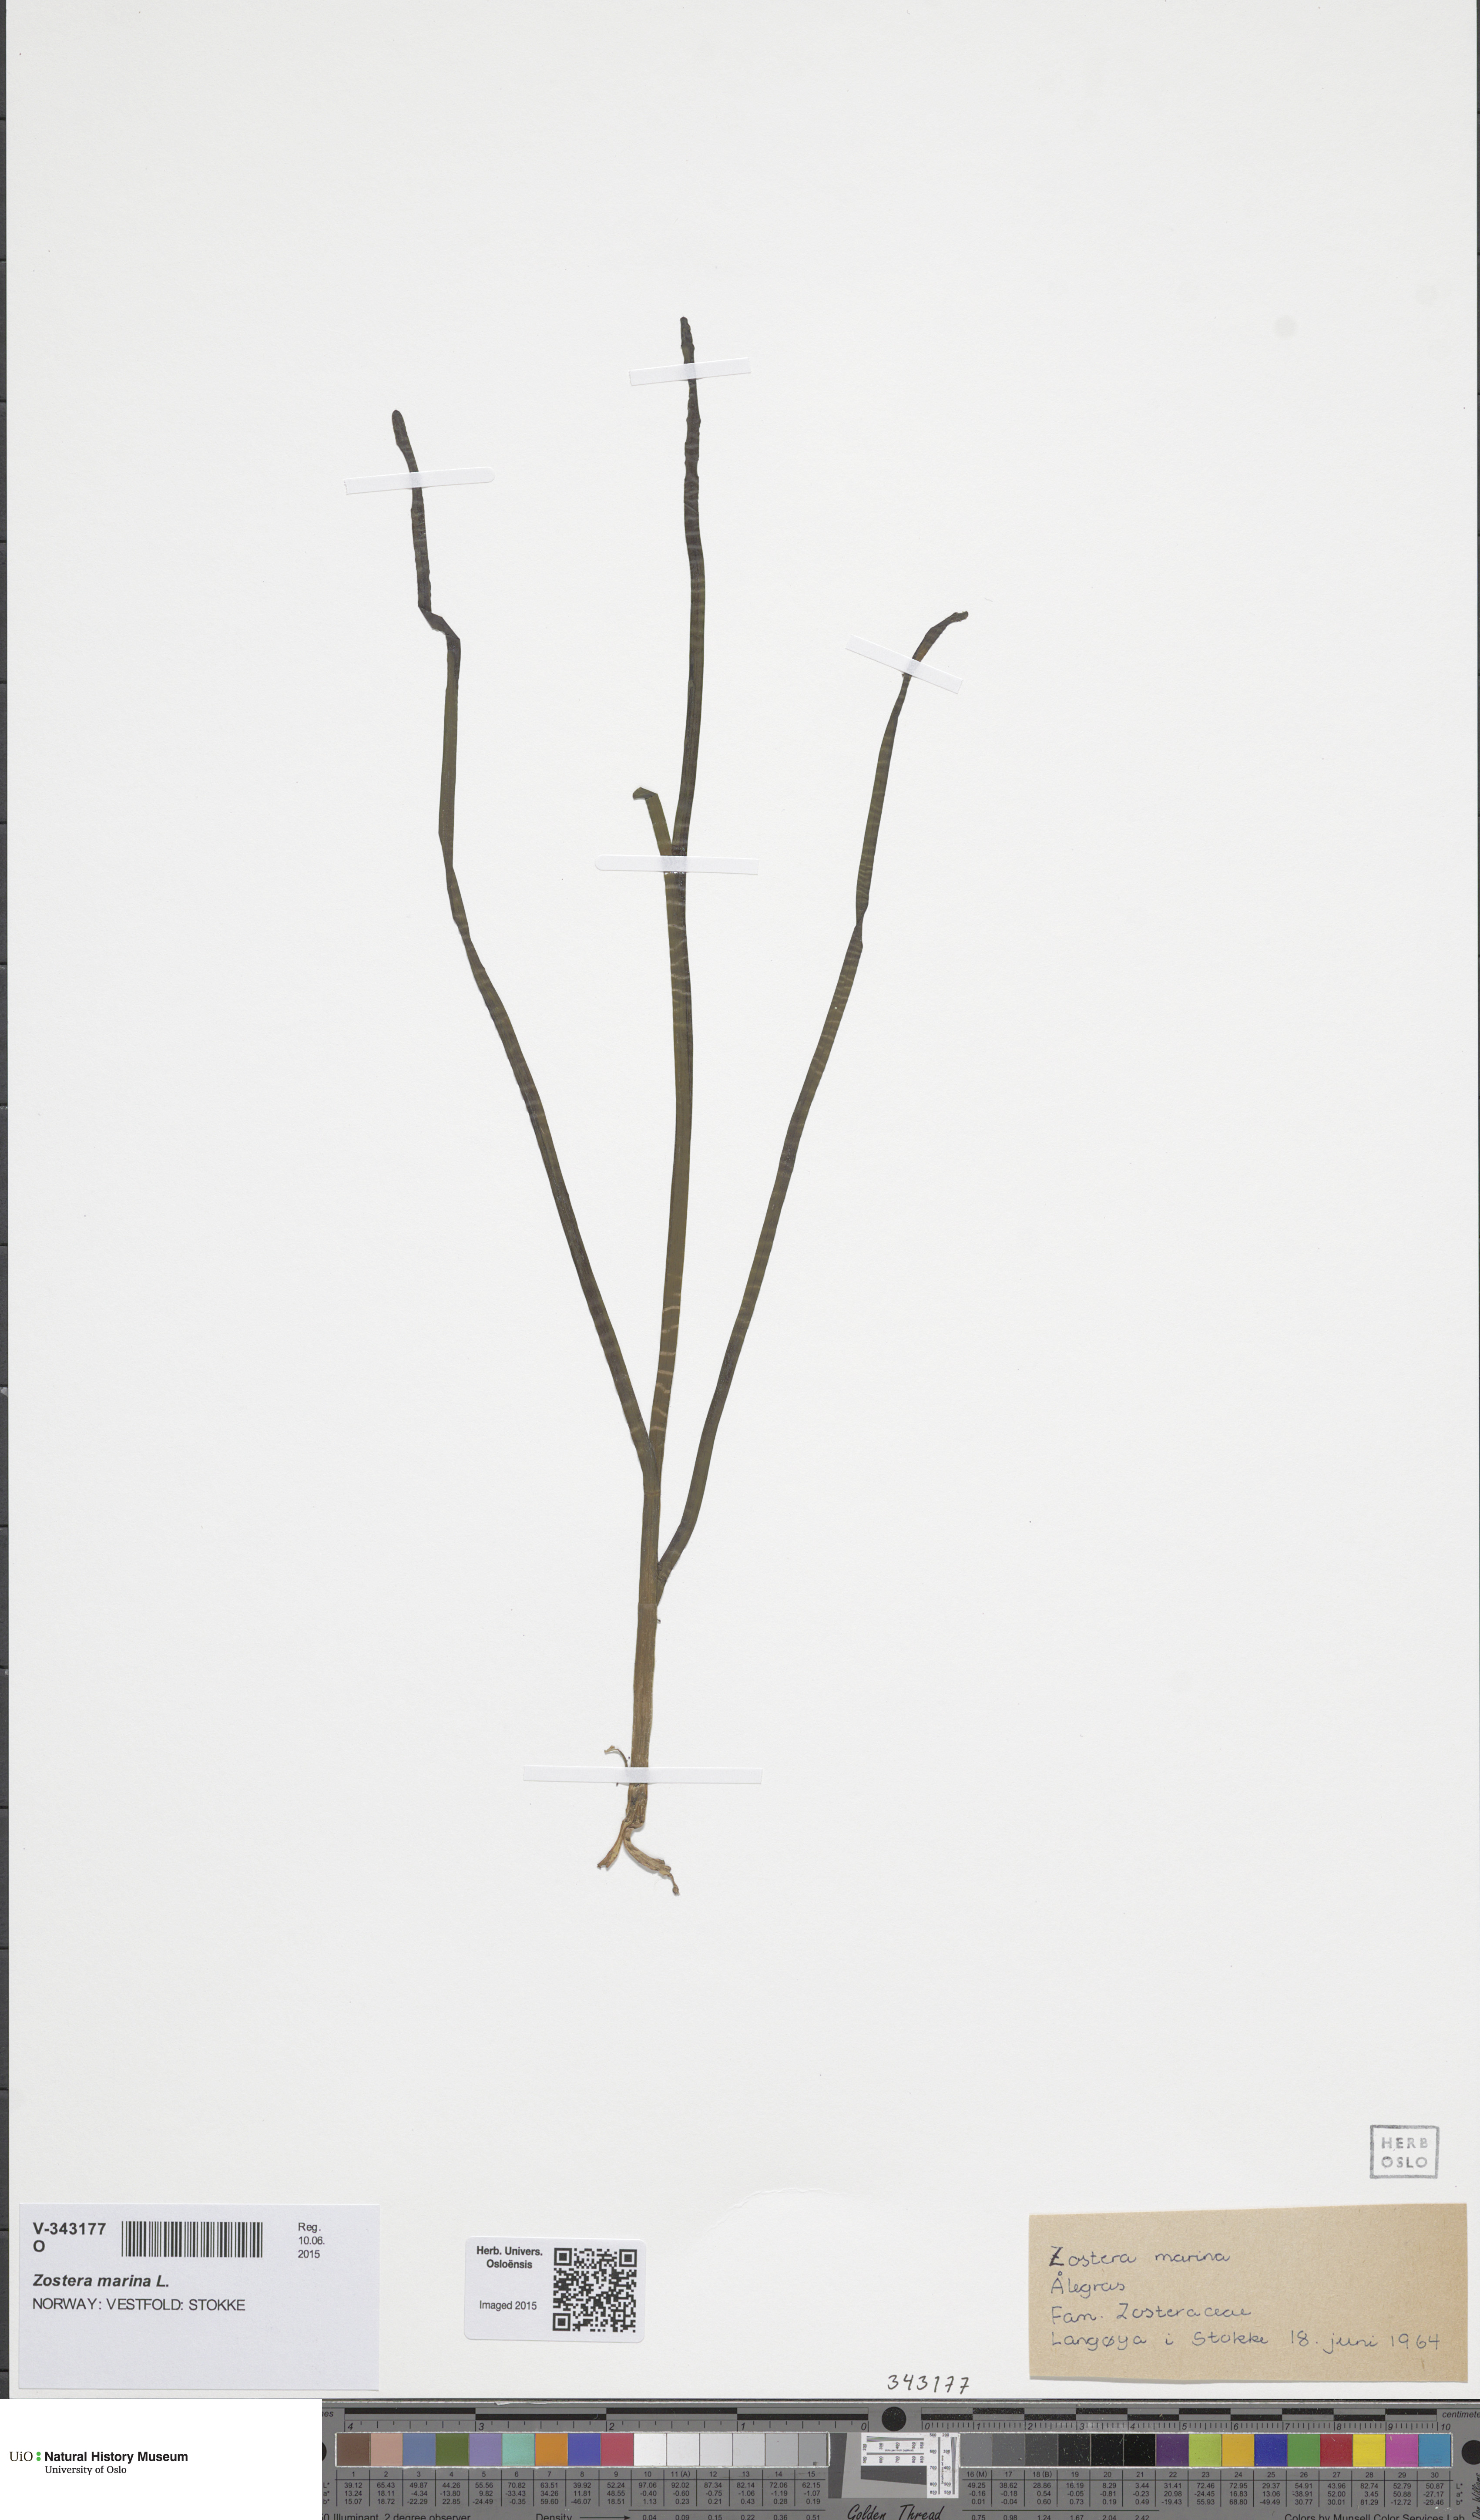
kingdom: Plantae
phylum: Tracheophyta
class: Liliopsida
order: Alismatales
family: Zosteraceae
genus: Zostera
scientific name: Zostera angustifolia
